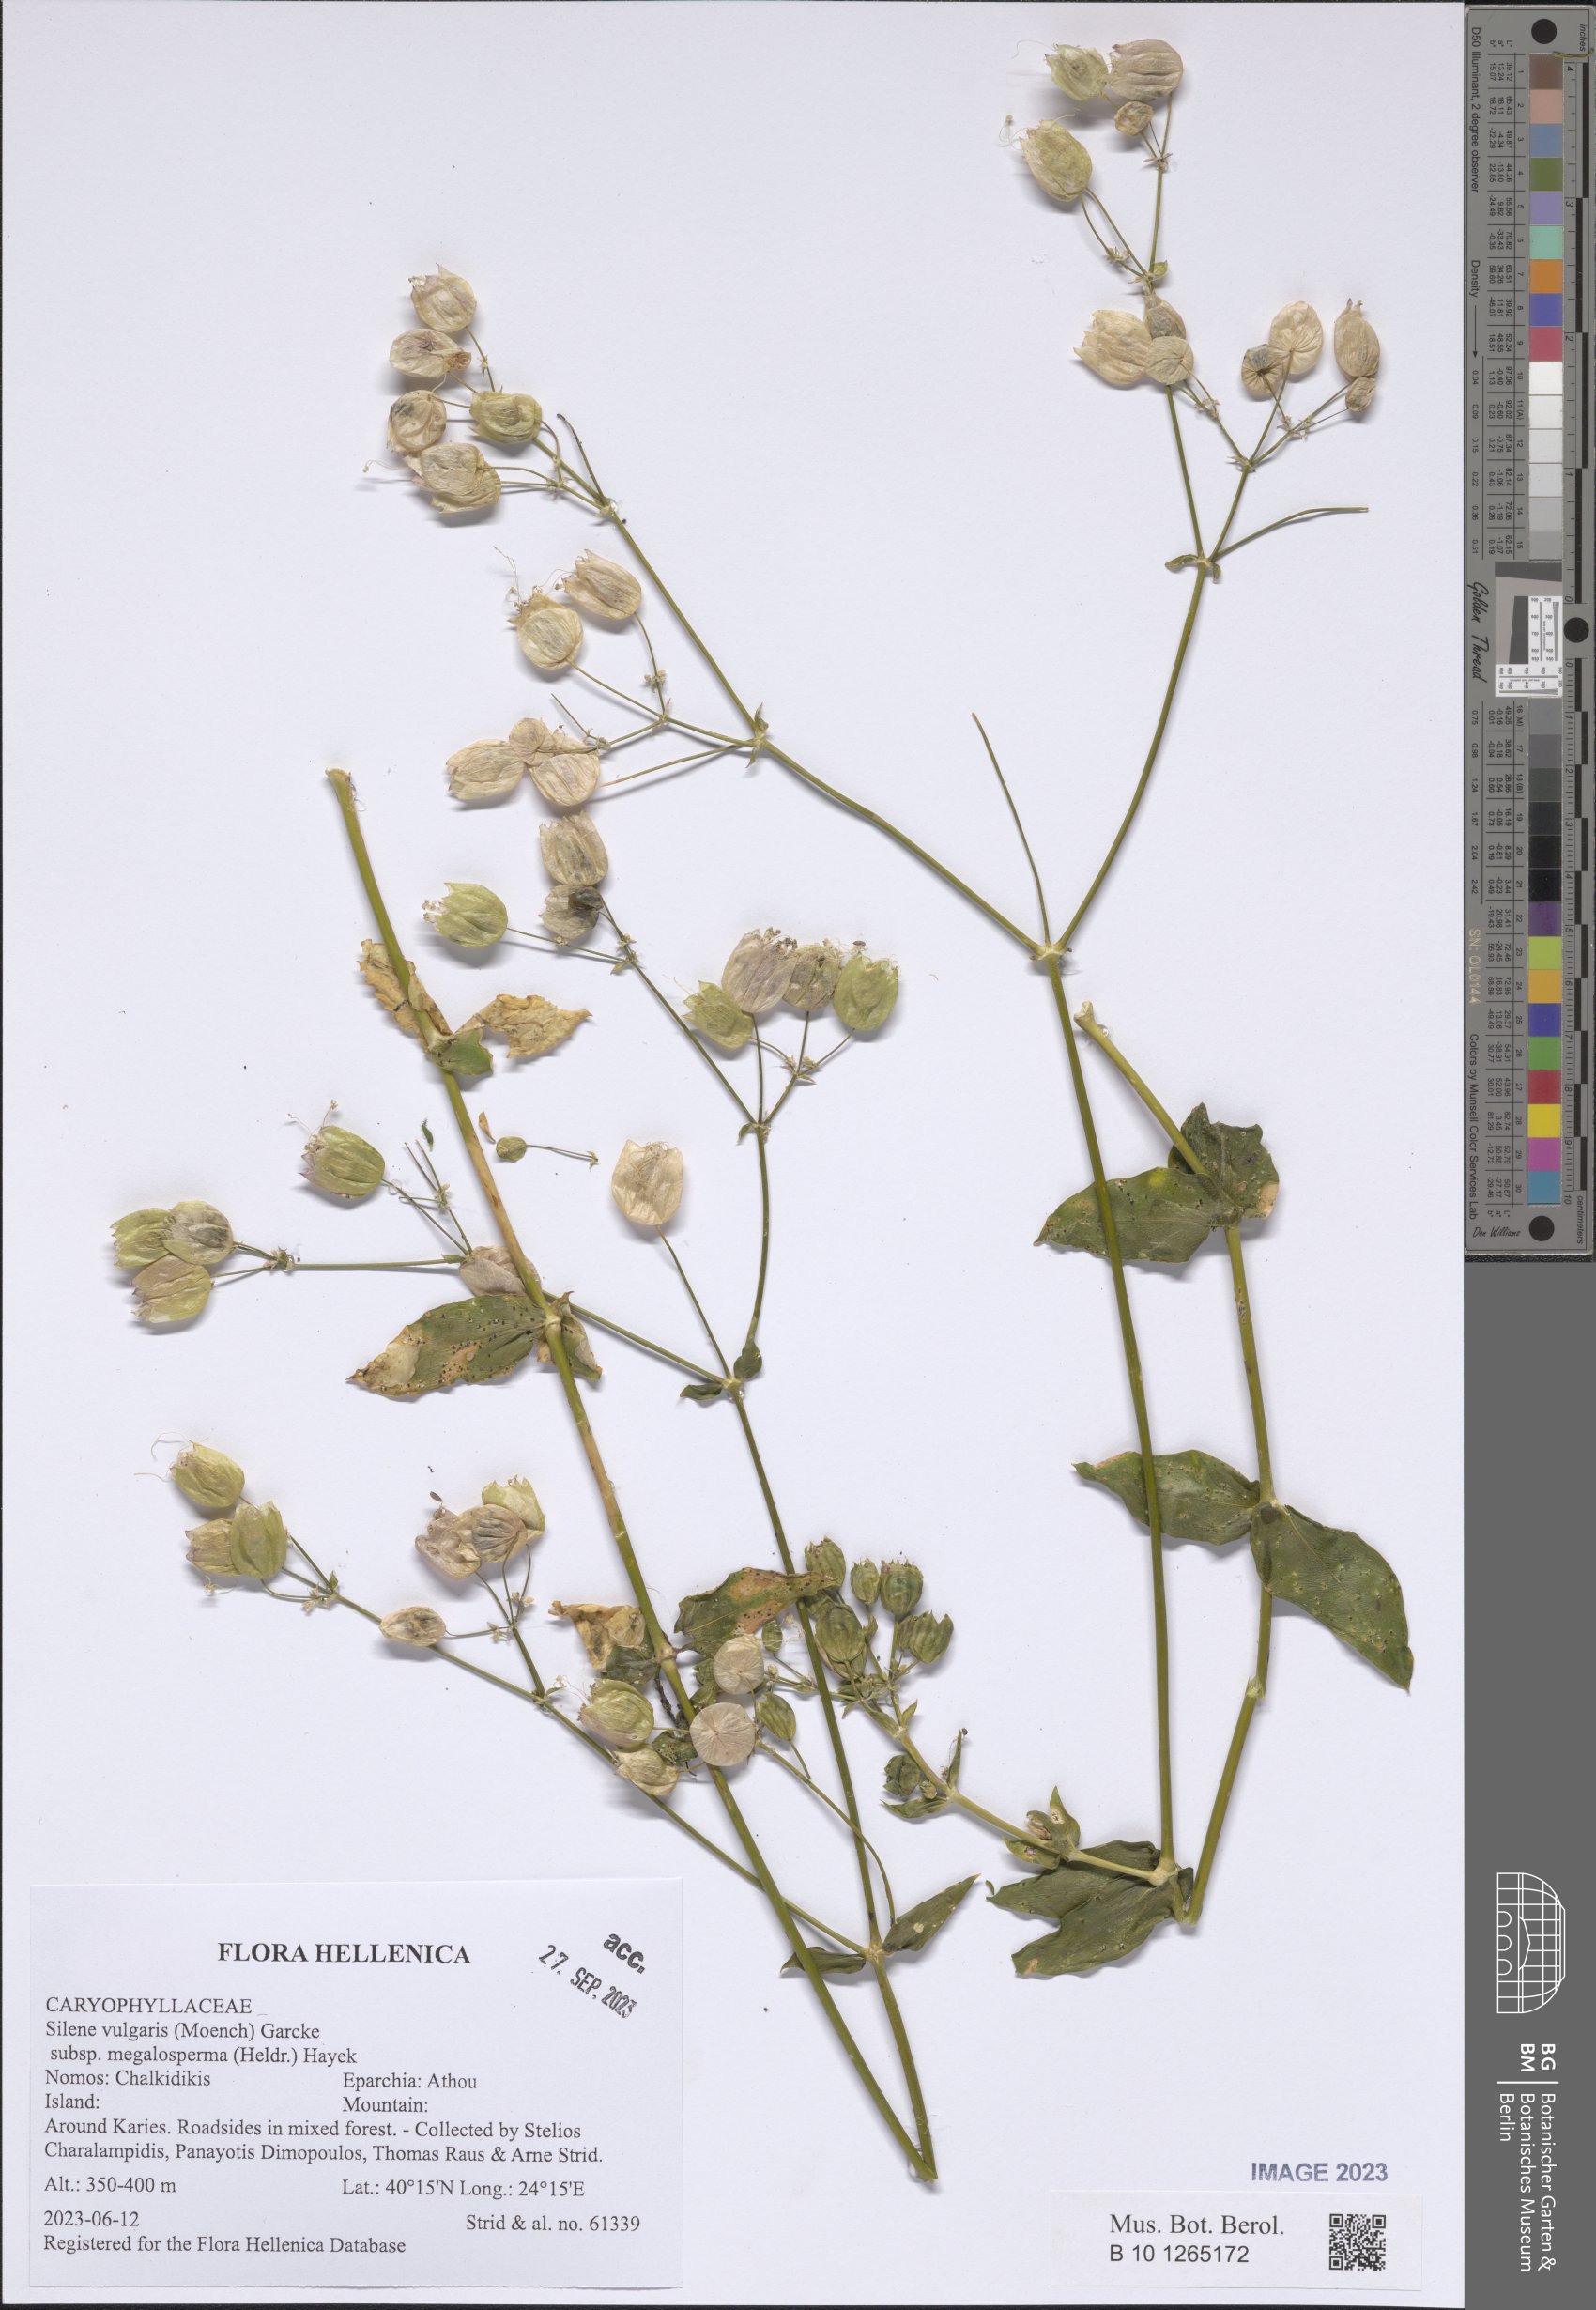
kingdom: Plantae
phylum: Tracheophyta
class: Magnoliopsida
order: Caryophyllales
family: Caryophyllaceae
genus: Silene
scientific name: Silene vulgaris
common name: Bladder campion
